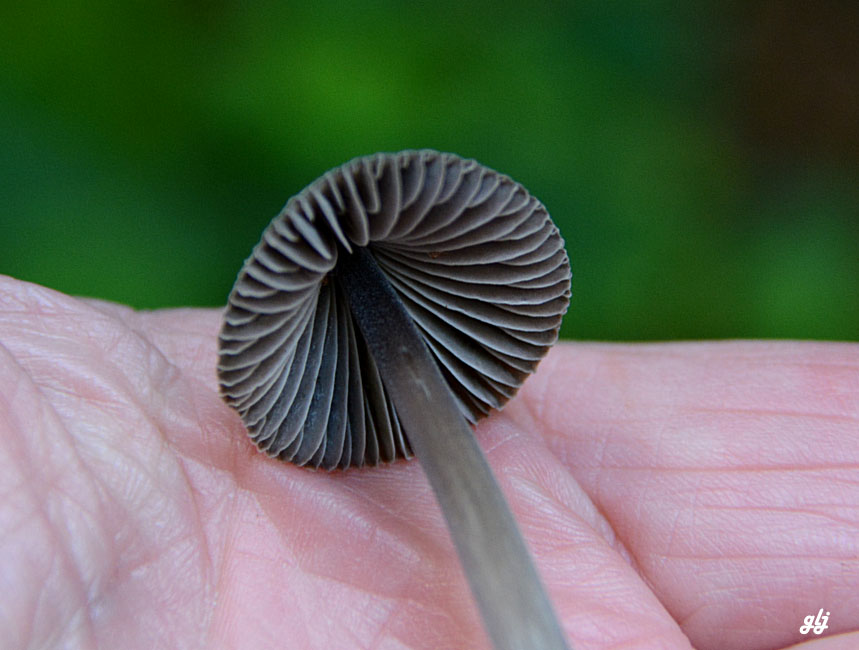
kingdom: Fungi
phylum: Basidiomycota
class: Agaricomycetes
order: Agaricales
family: Mycenaceae
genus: Mycena
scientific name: Mycena
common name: huesvamp
